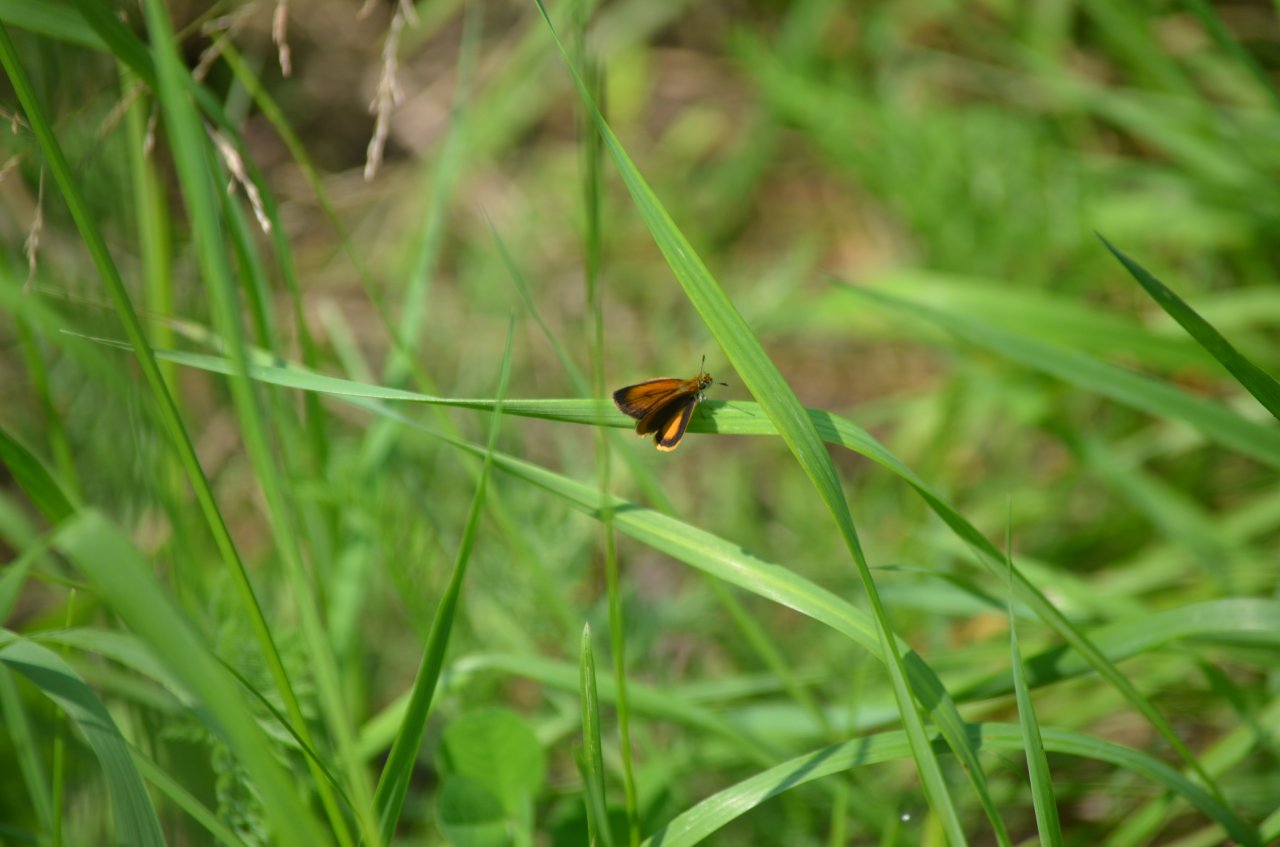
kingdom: Animalia
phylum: Arthropoda
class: Insecta
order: Lepidoptera
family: Hesperiidae
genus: Ancyloxypha
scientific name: Ancyloxypha numitor
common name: Least Skipper
